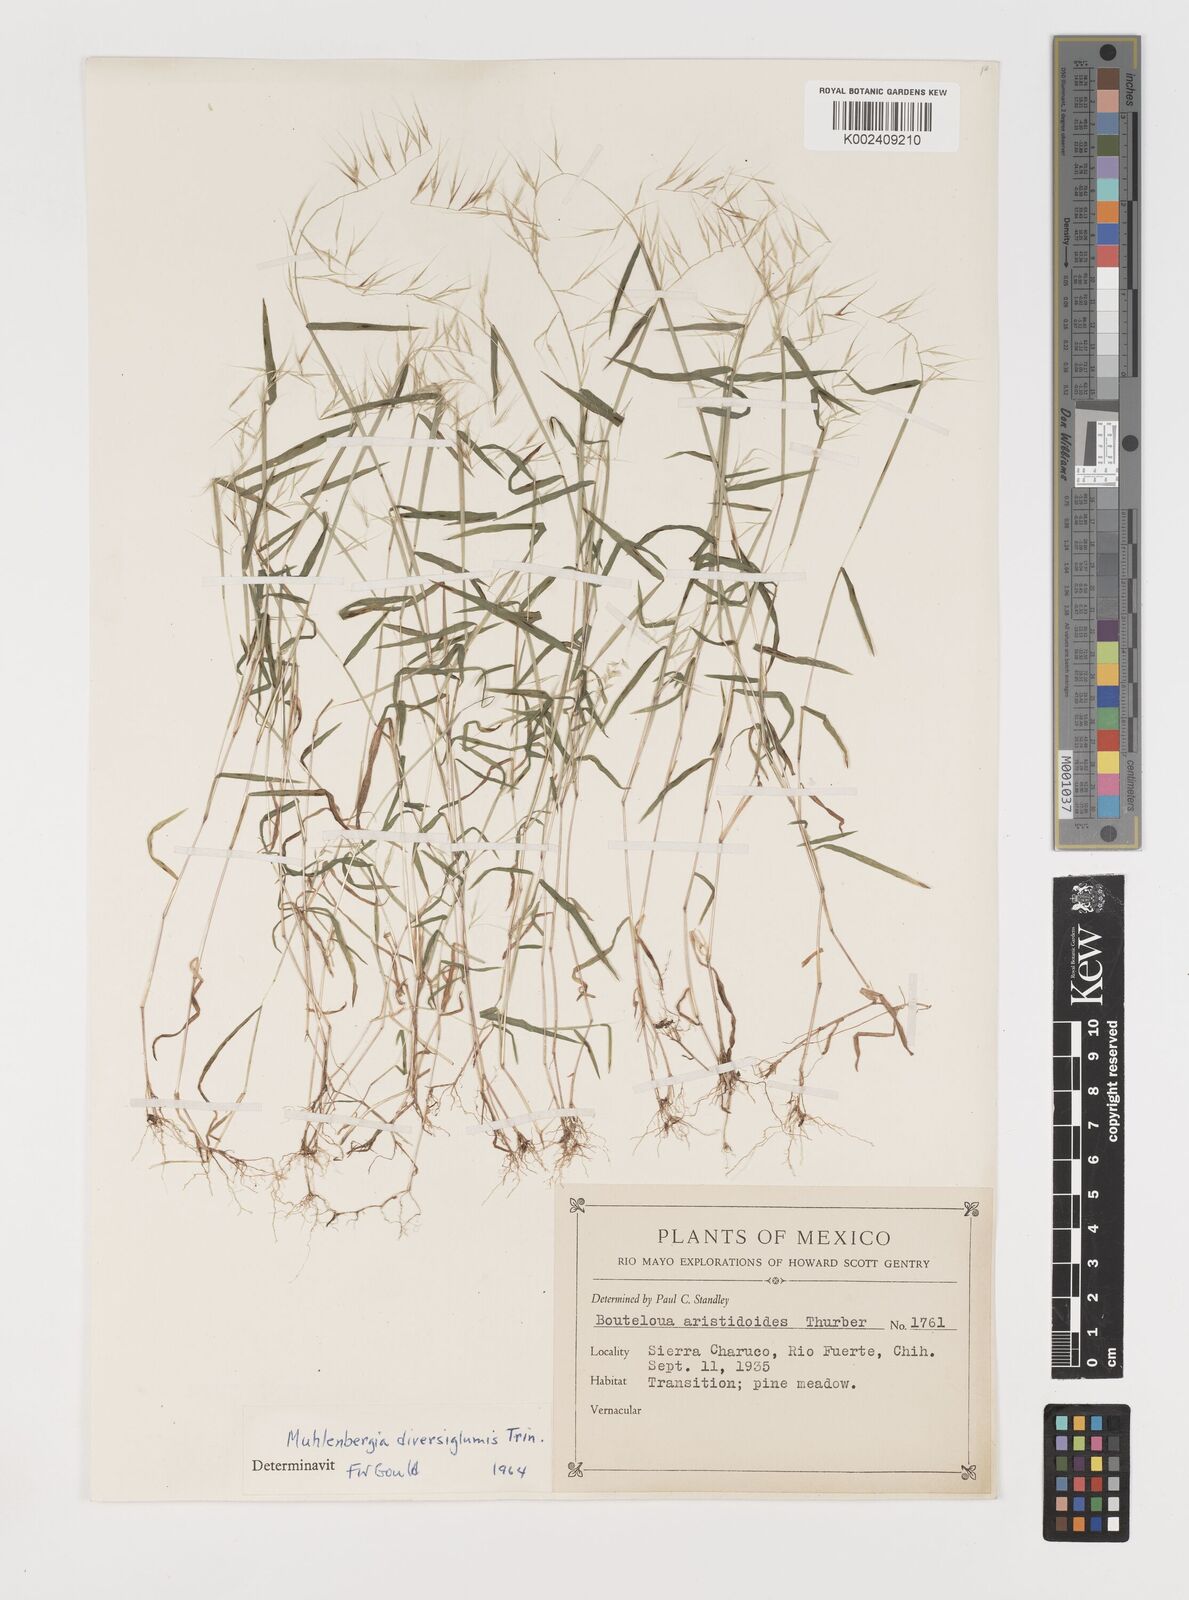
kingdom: Plantae
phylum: Tracheophyta
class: Liliopsida
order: Poales
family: Poaceae
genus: Muhlenbergia
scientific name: Muhlenbergia diversiglumis
